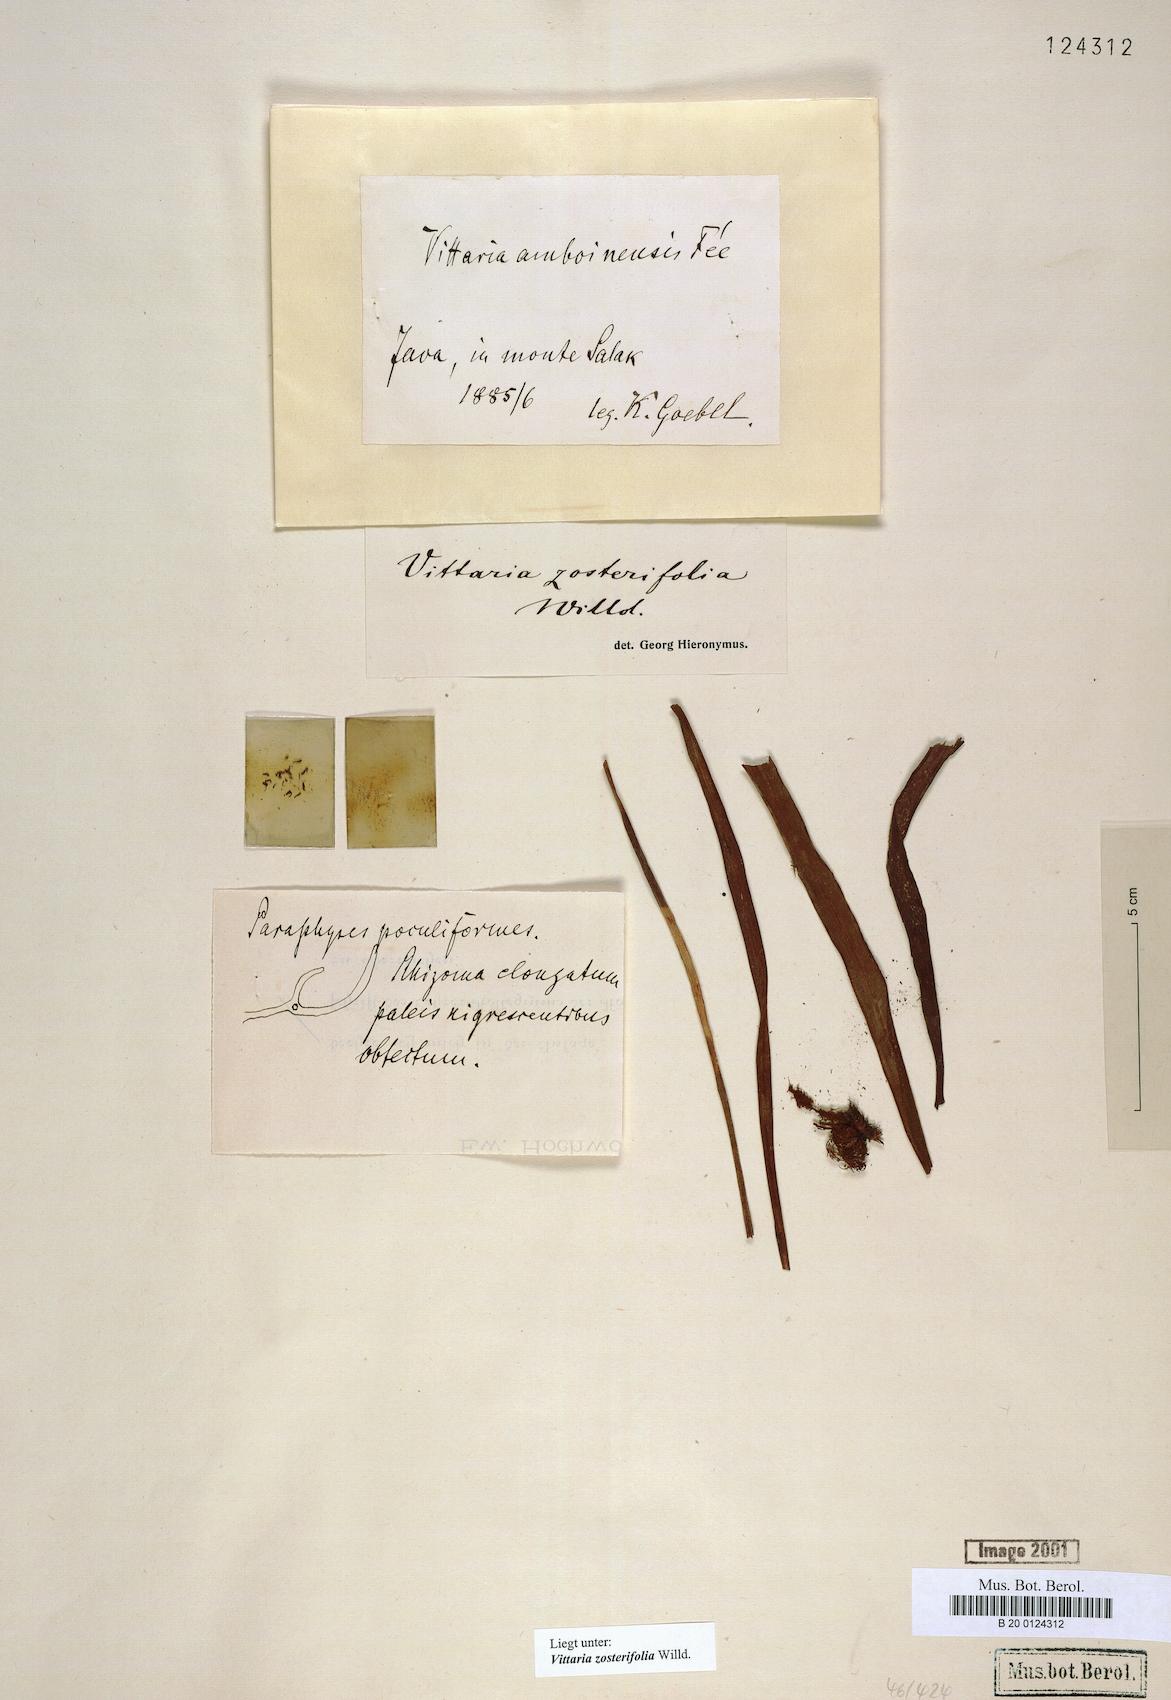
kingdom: Plantae
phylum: Tracheophyta
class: Polypodiopsida
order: Polypodiales
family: Pteridaceae
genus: Haplopteris
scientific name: Haplopteris zosterifolia
